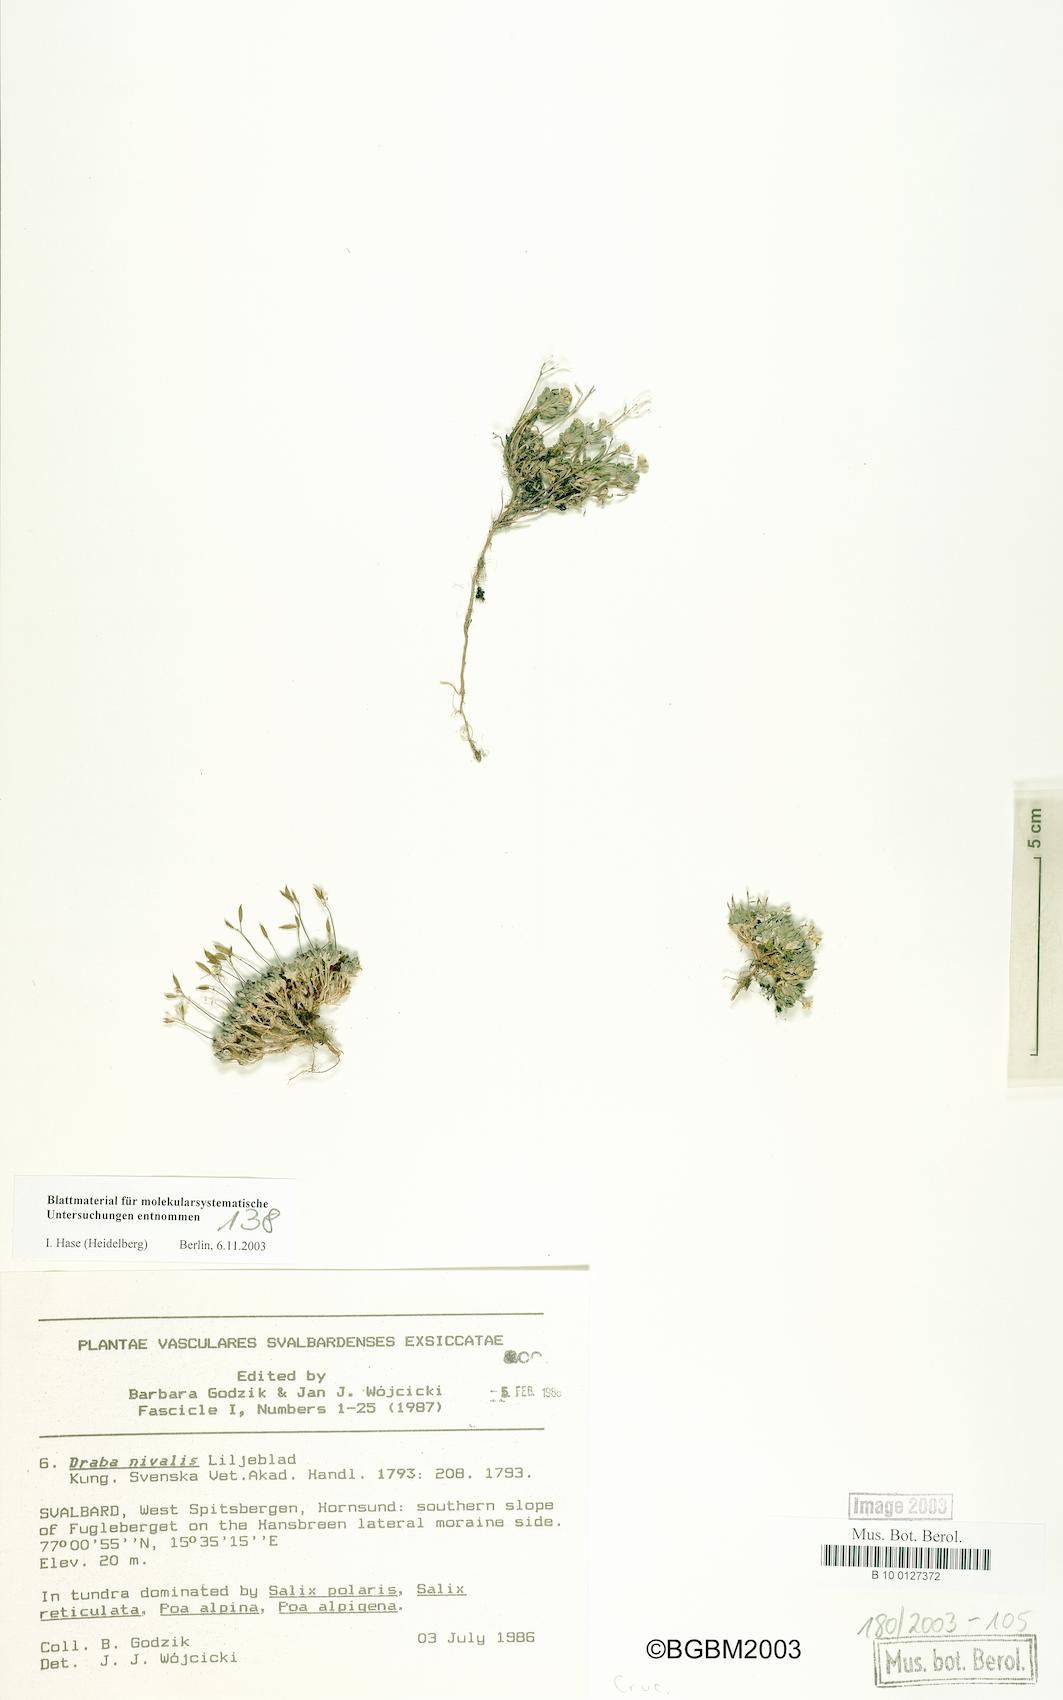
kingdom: Plantae
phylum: Tracheophyta
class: Magnoliopsida
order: Brassicales
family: Brassicaceae
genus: Draba
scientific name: Draba nivalis
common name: Snow draba
